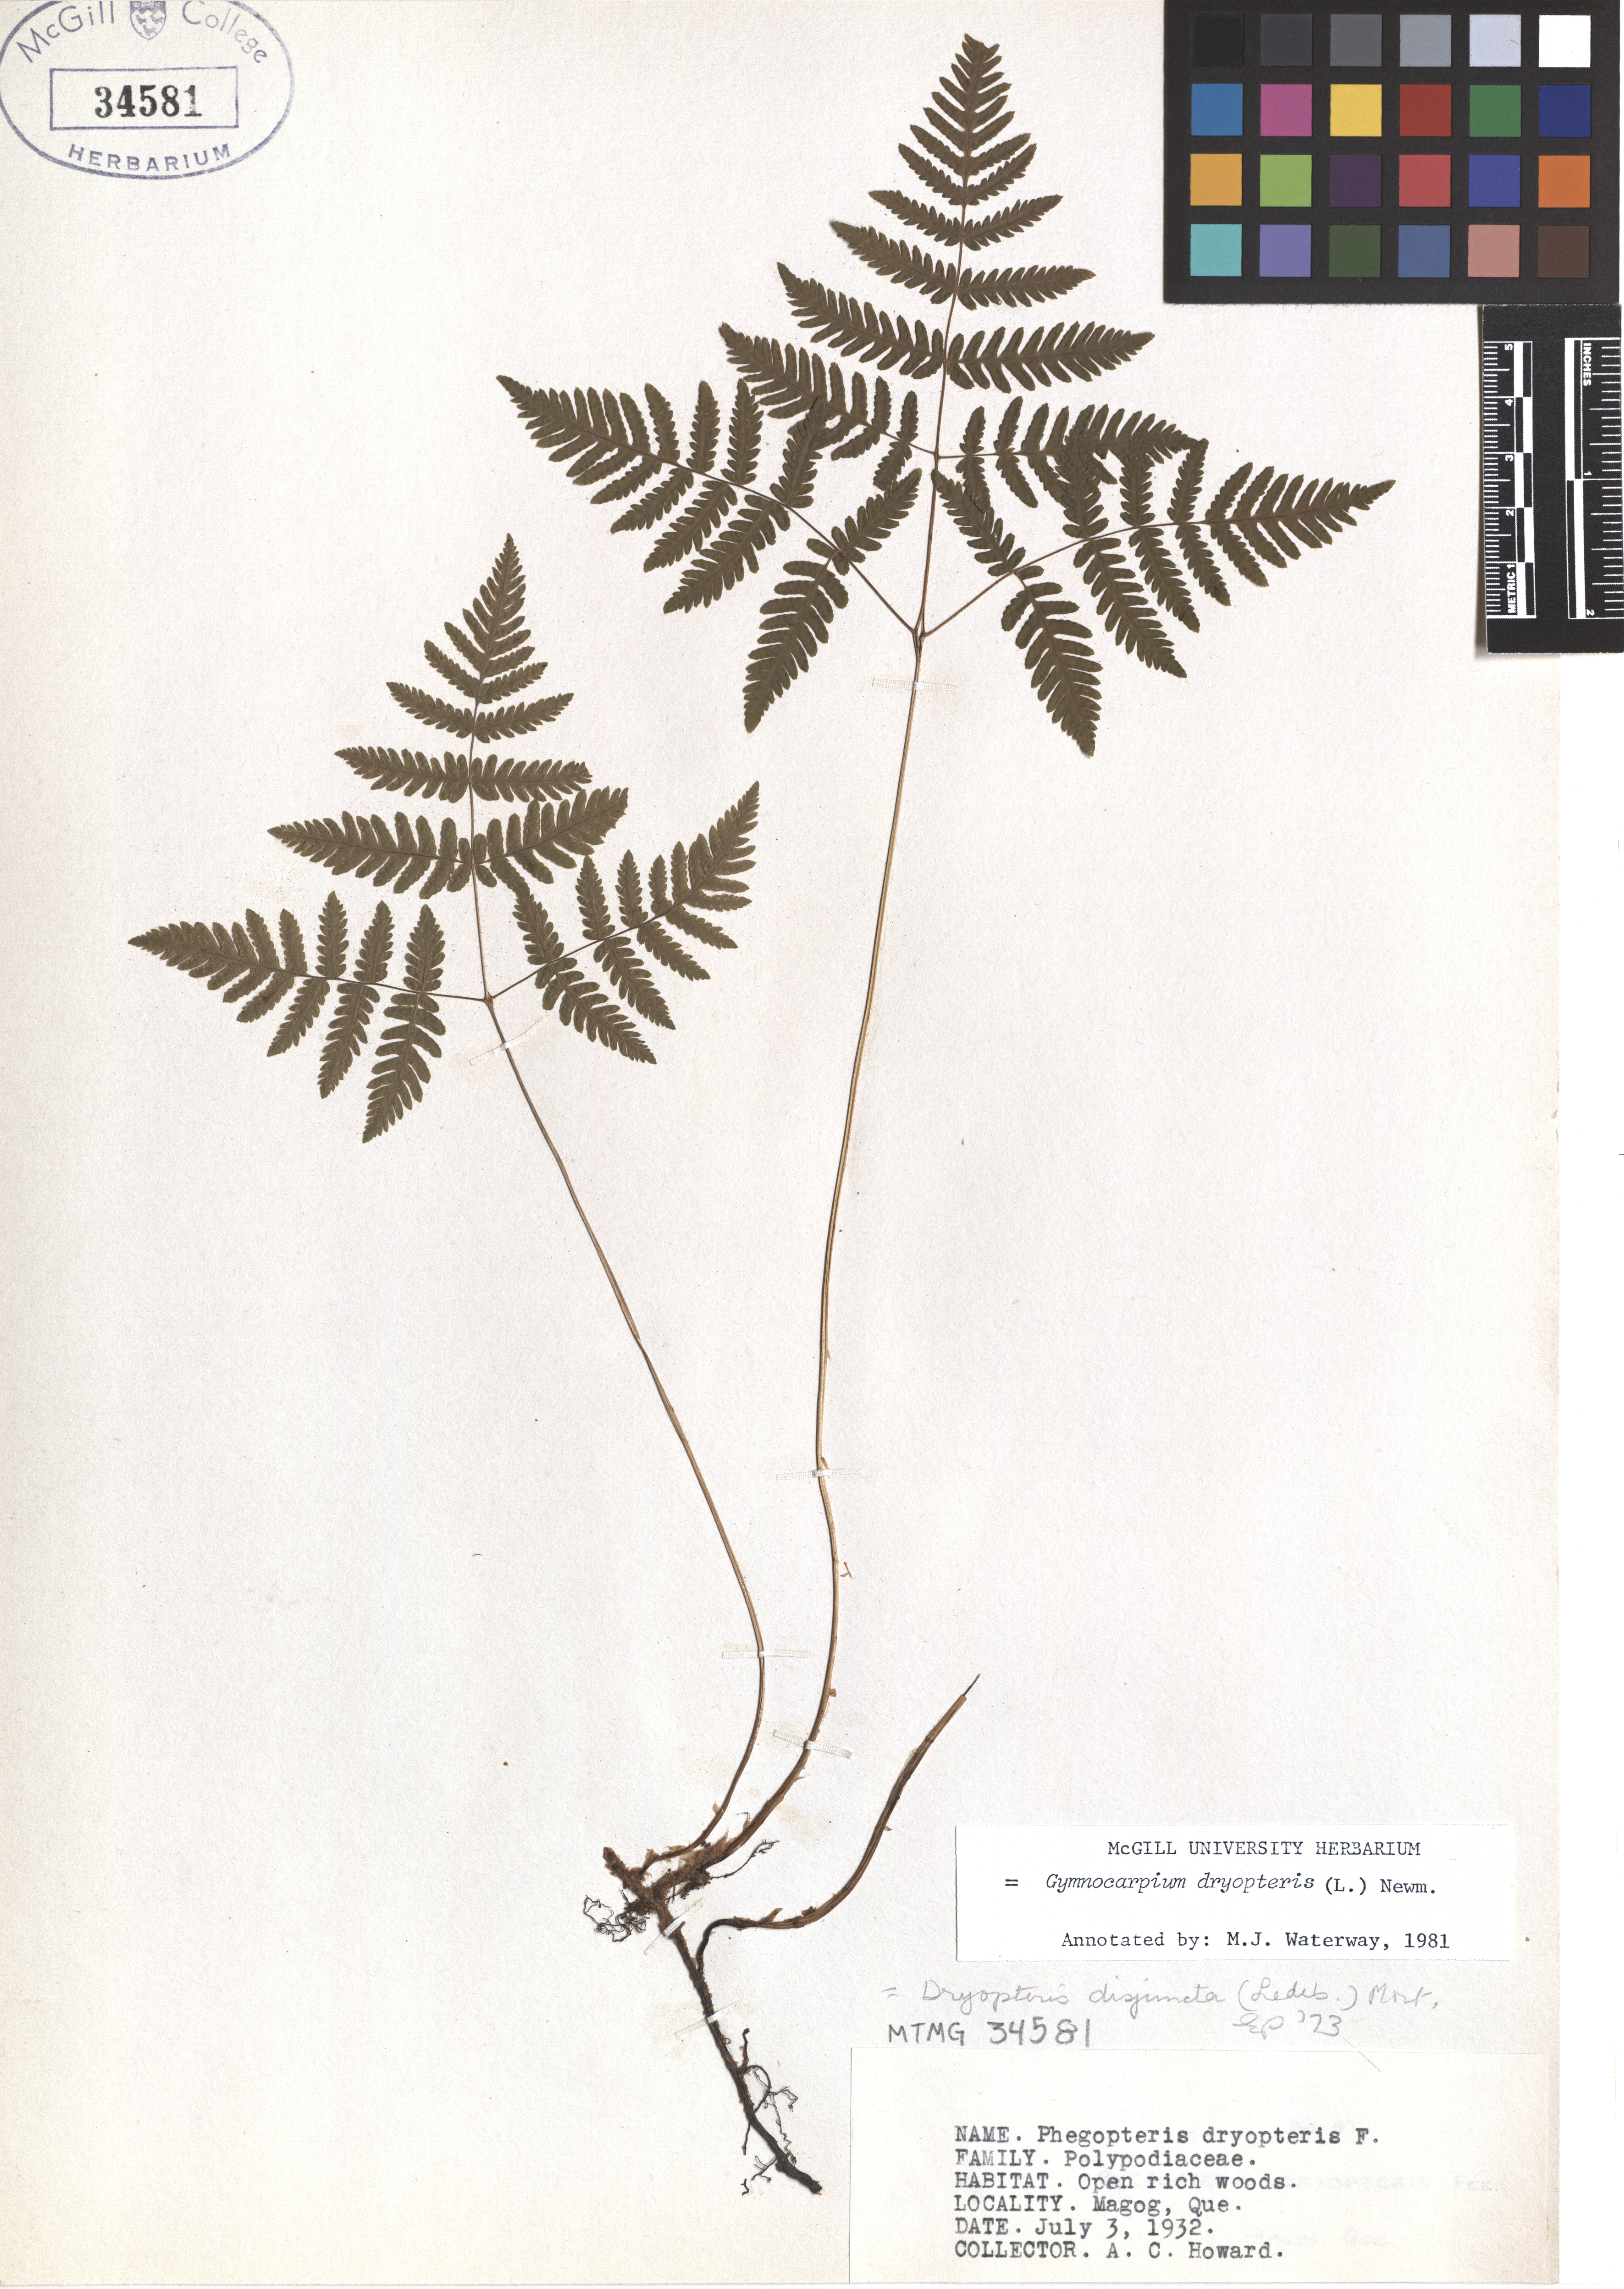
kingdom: Plantae
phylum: Tracheophyta
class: Polypodiopsida
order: Polypodiales
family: Cystopteridaceae
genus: Gymnocarpium
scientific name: Gymnocarpium dryopteris
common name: Oak fern
